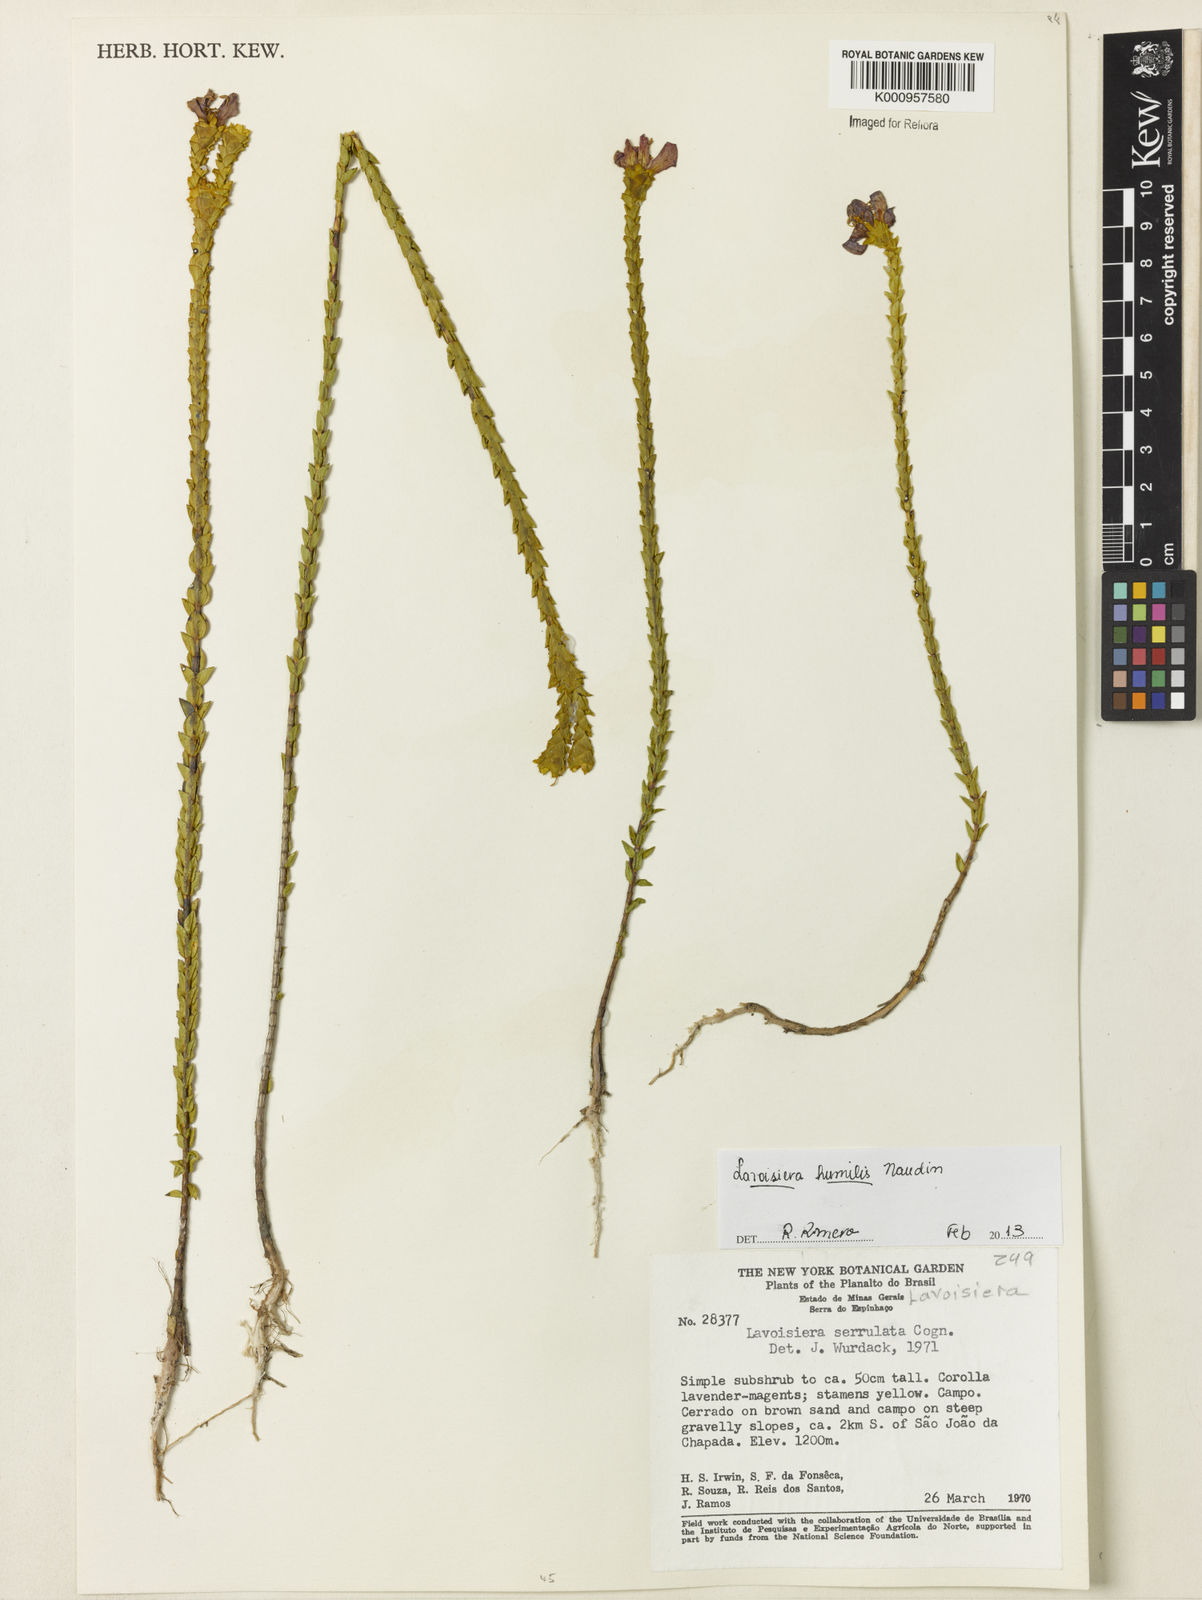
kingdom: Plantae
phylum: Tracheophyta
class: Magnoliopsida
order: Myrtales
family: Melastomataceae
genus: Microlicia
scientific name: Microlicia minor
